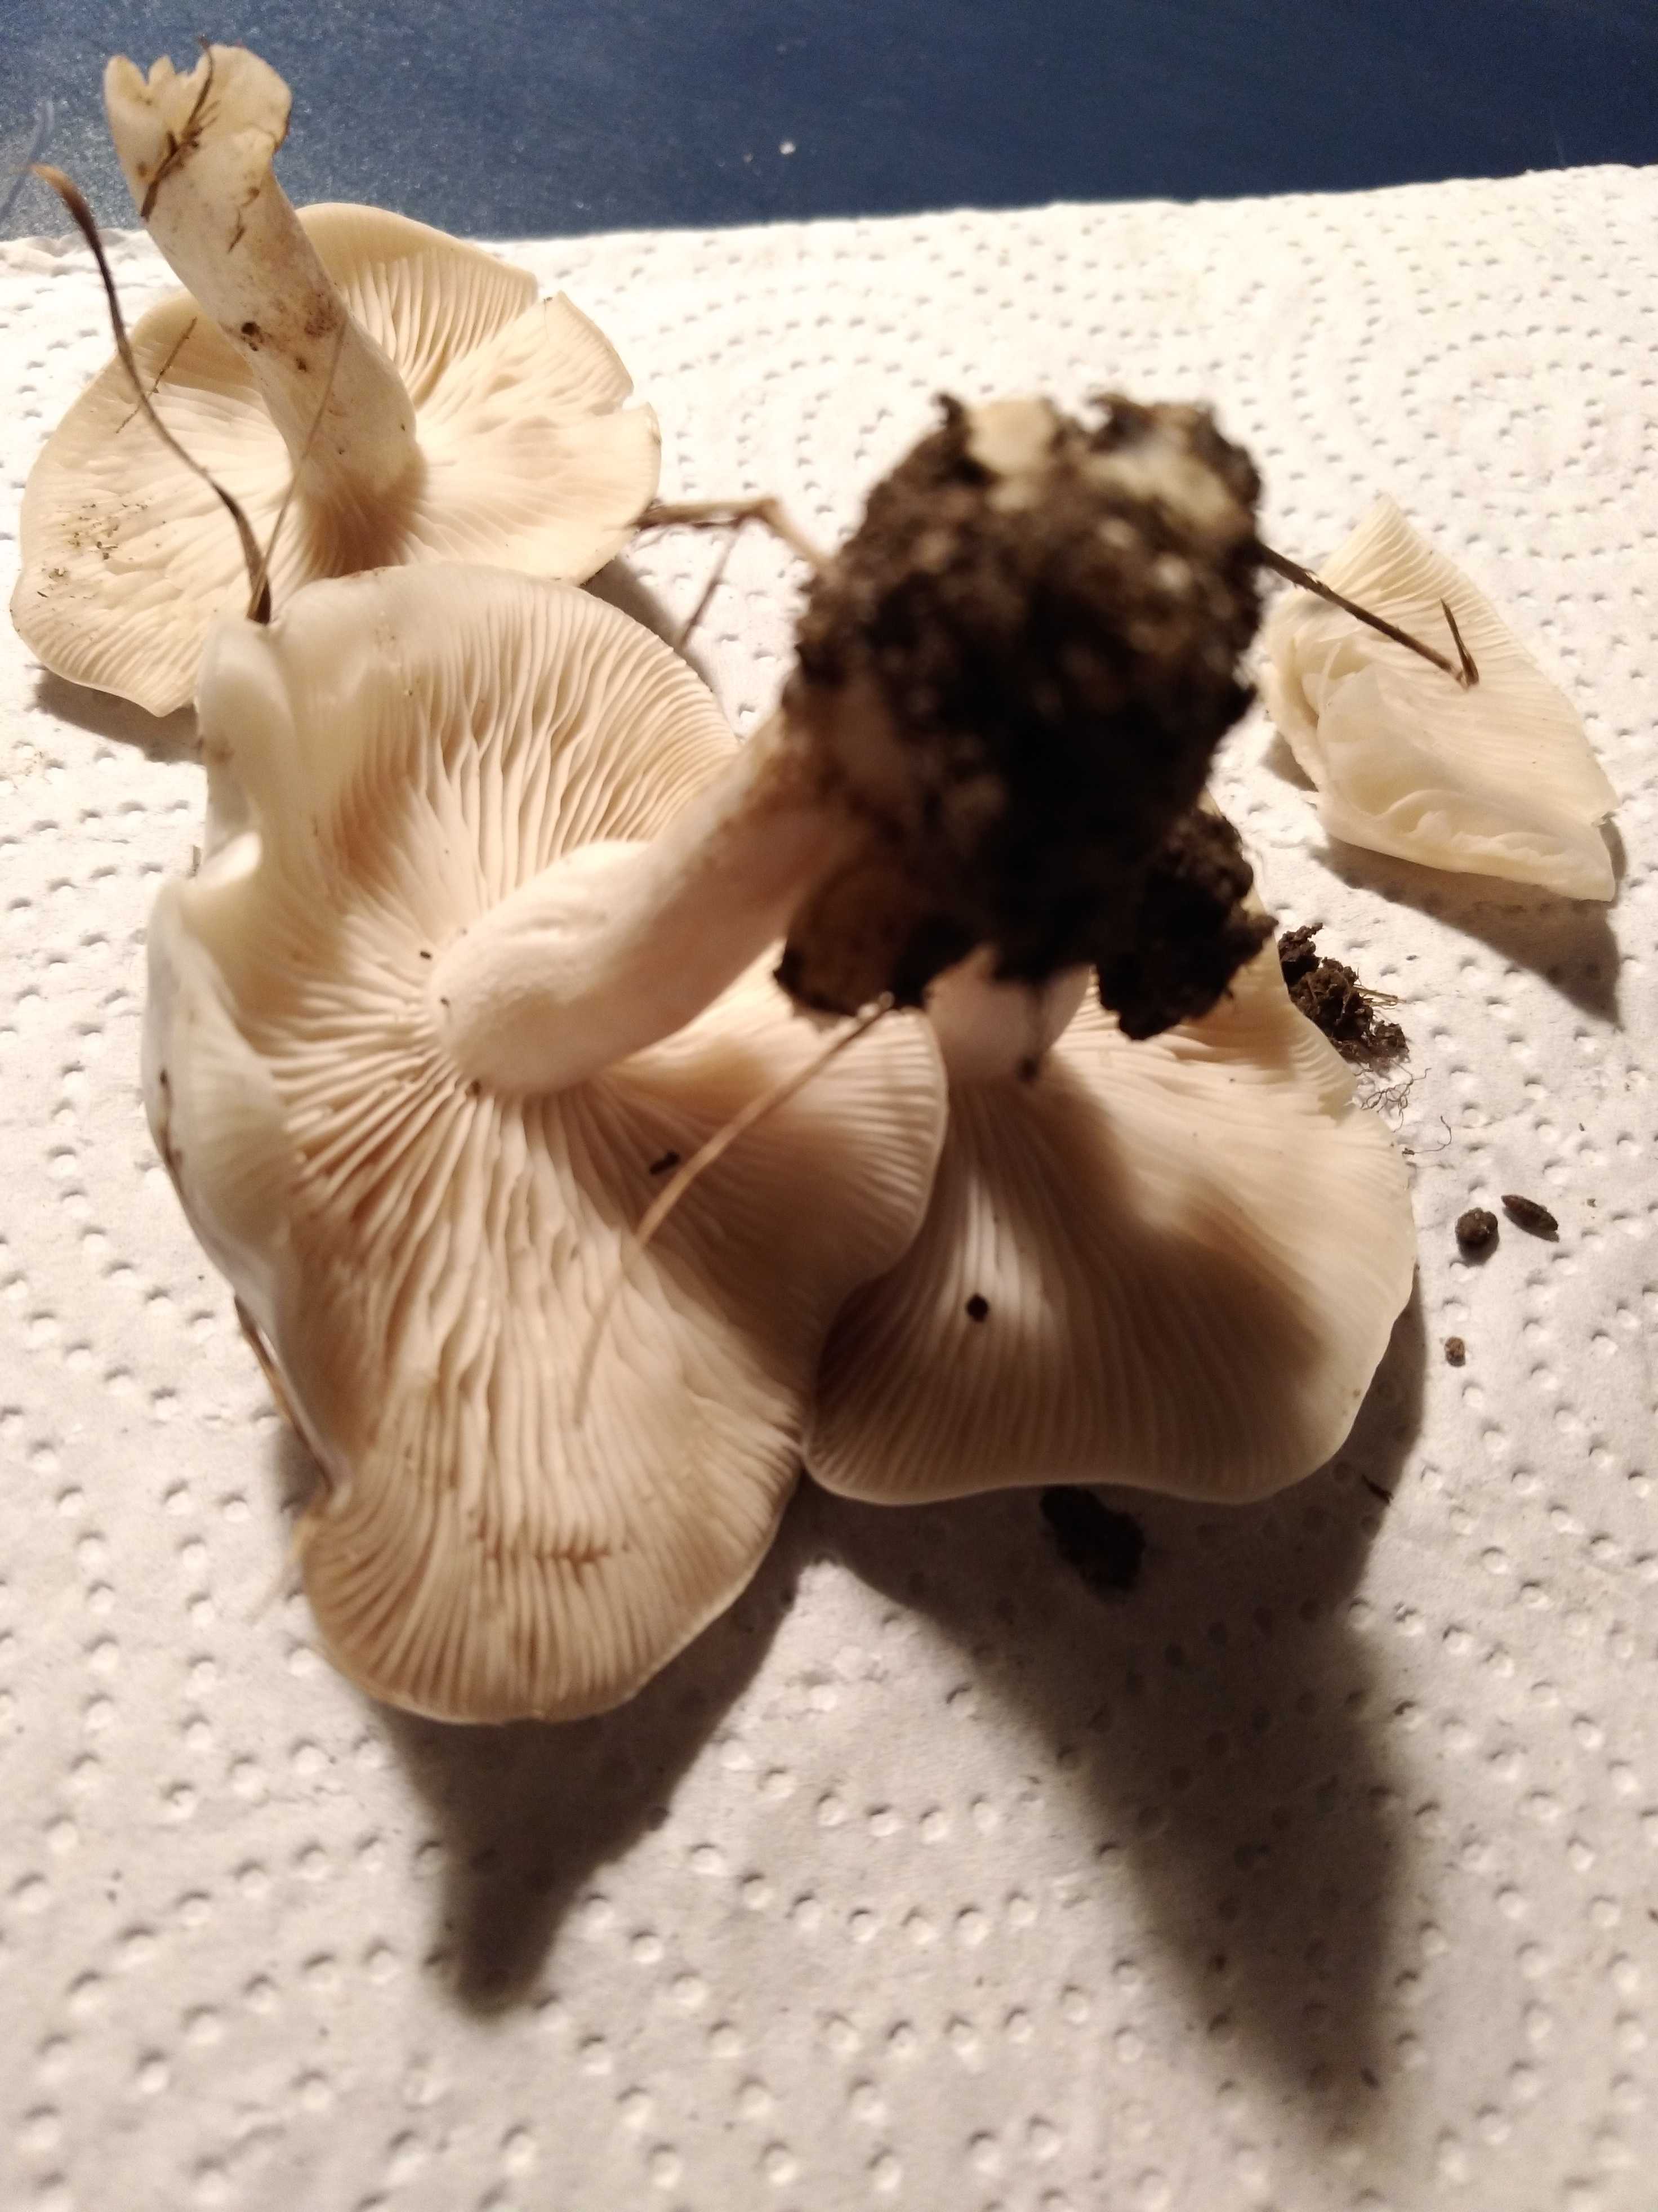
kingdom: Fungi
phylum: Basidiomycota
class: Agaricomycetes
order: Agaricales
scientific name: Agaricales
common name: champignonordenen
